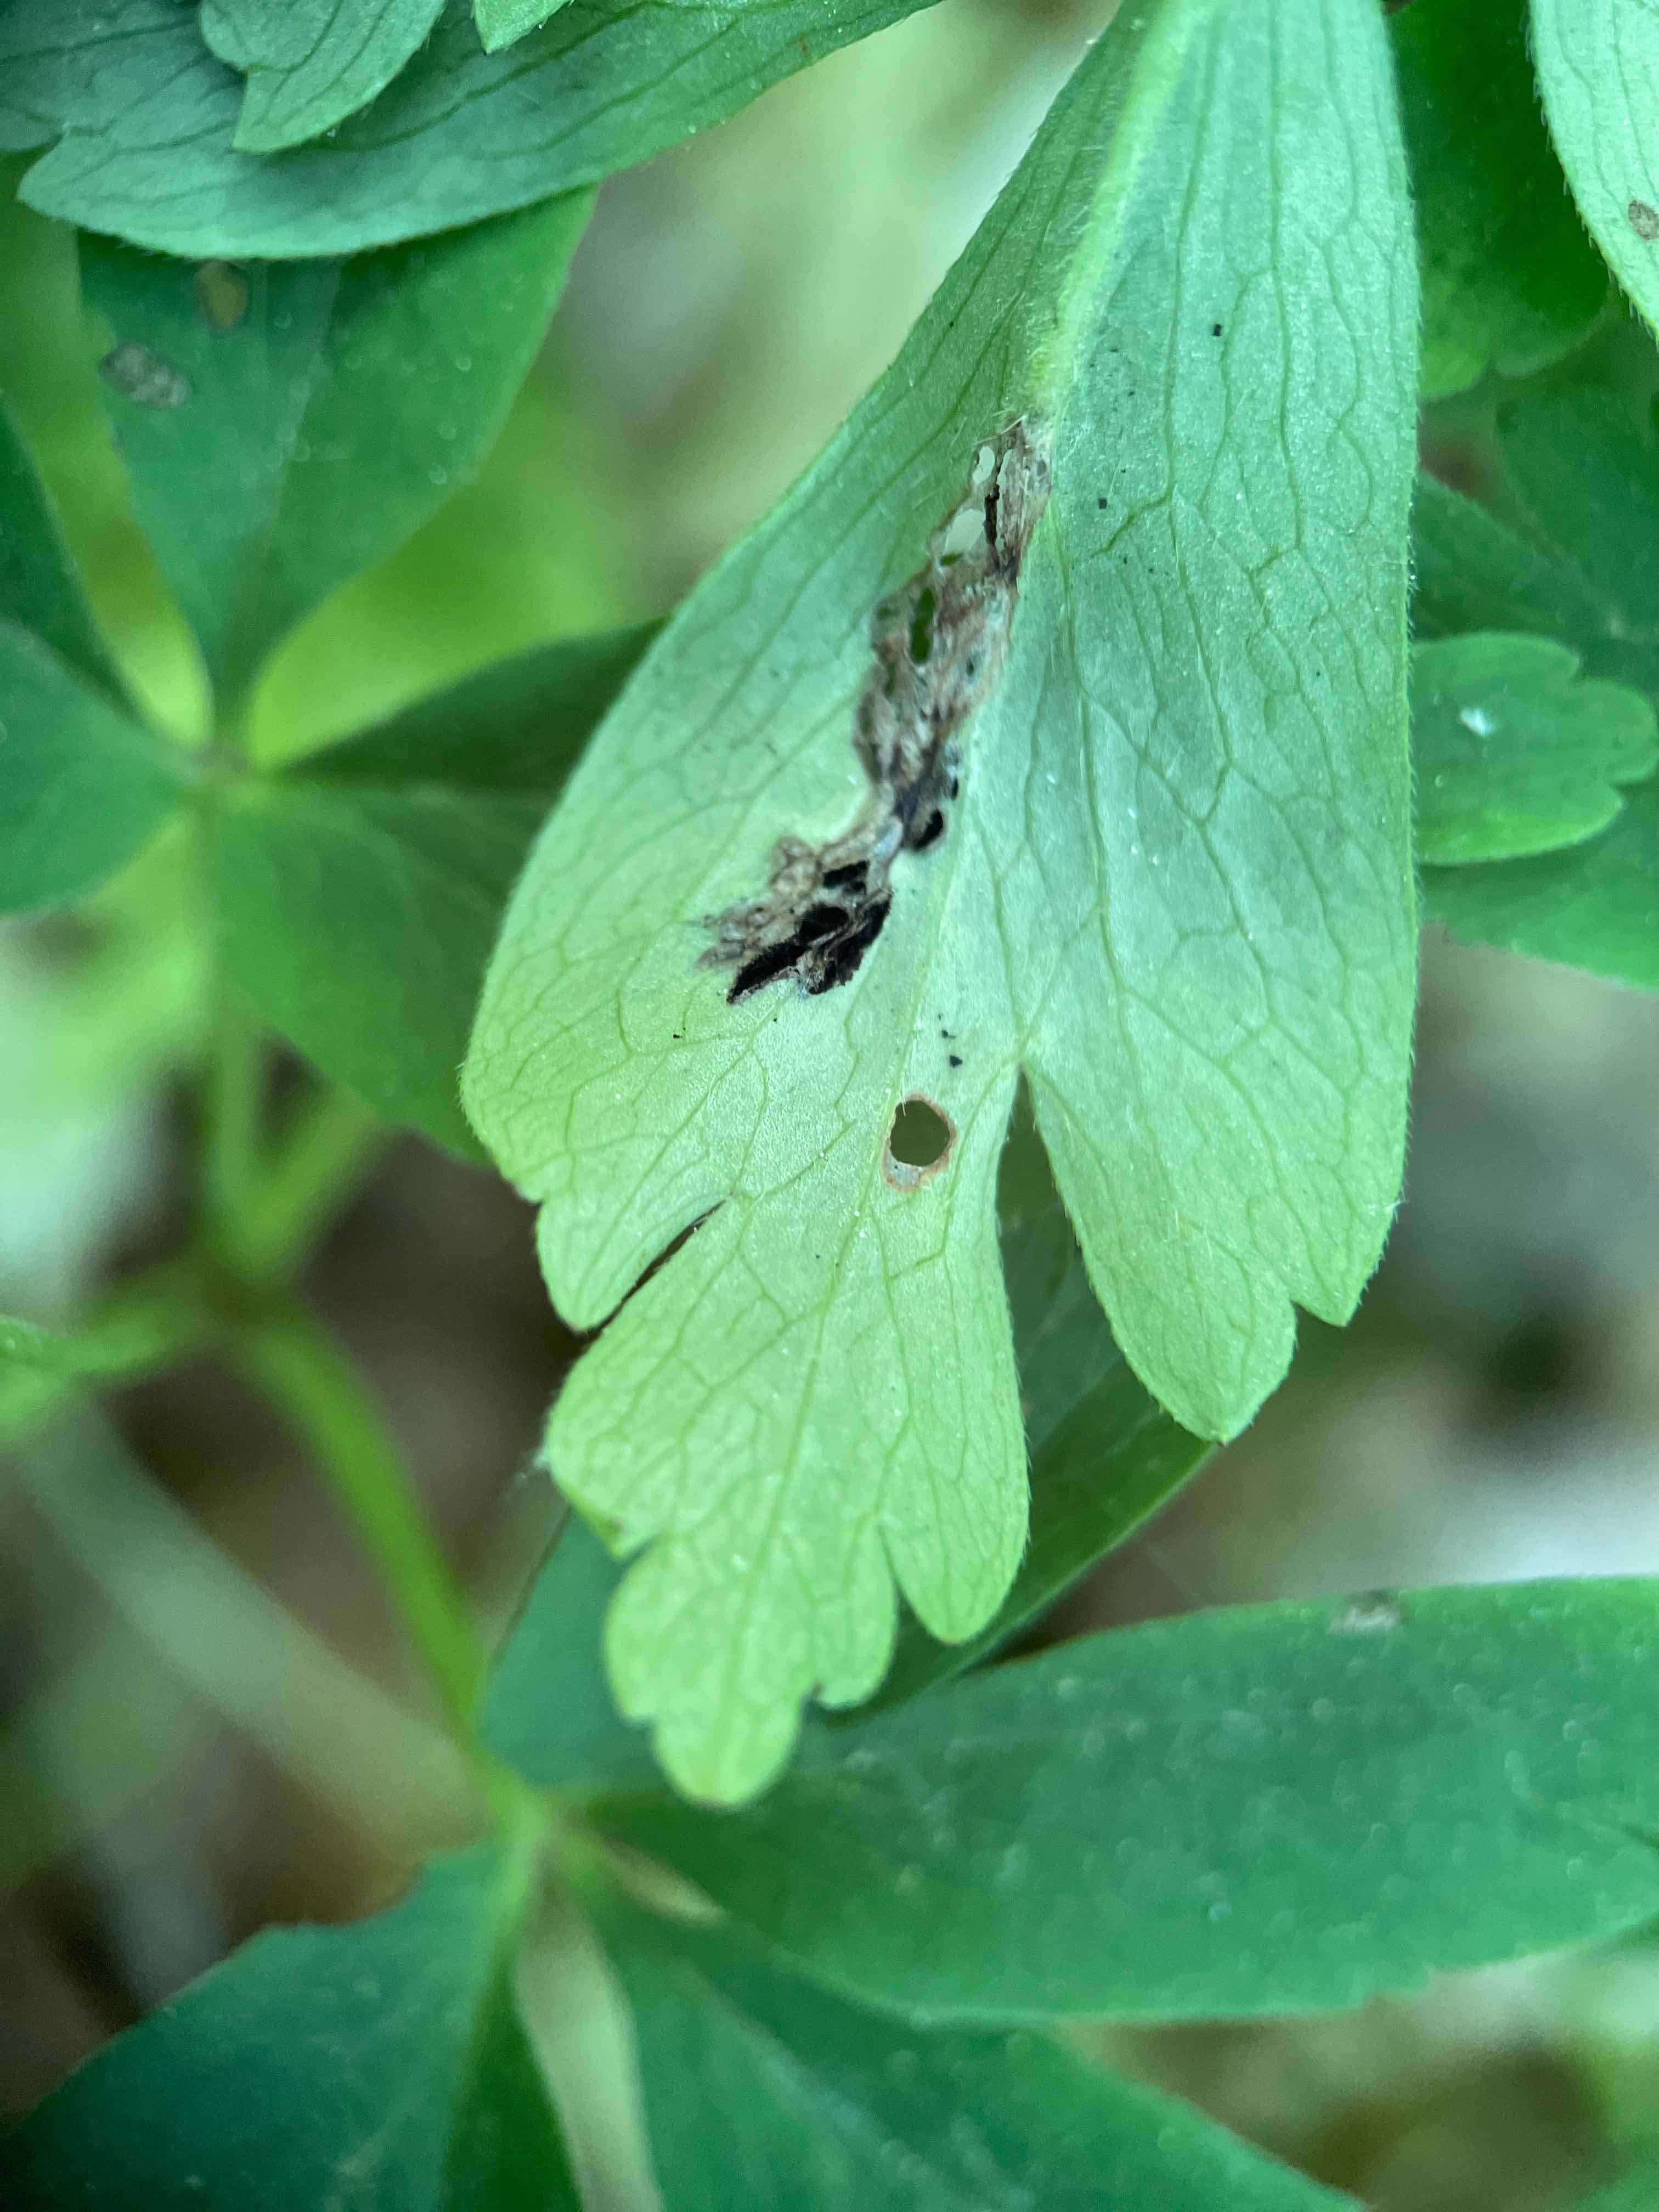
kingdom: Fungi
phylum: Basidiomycota
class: Ustilaginomycetes
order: Urocystidales
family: Urocystidaceae
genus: Urocystis
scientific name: Urocystis anemones
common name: anemone-brand
